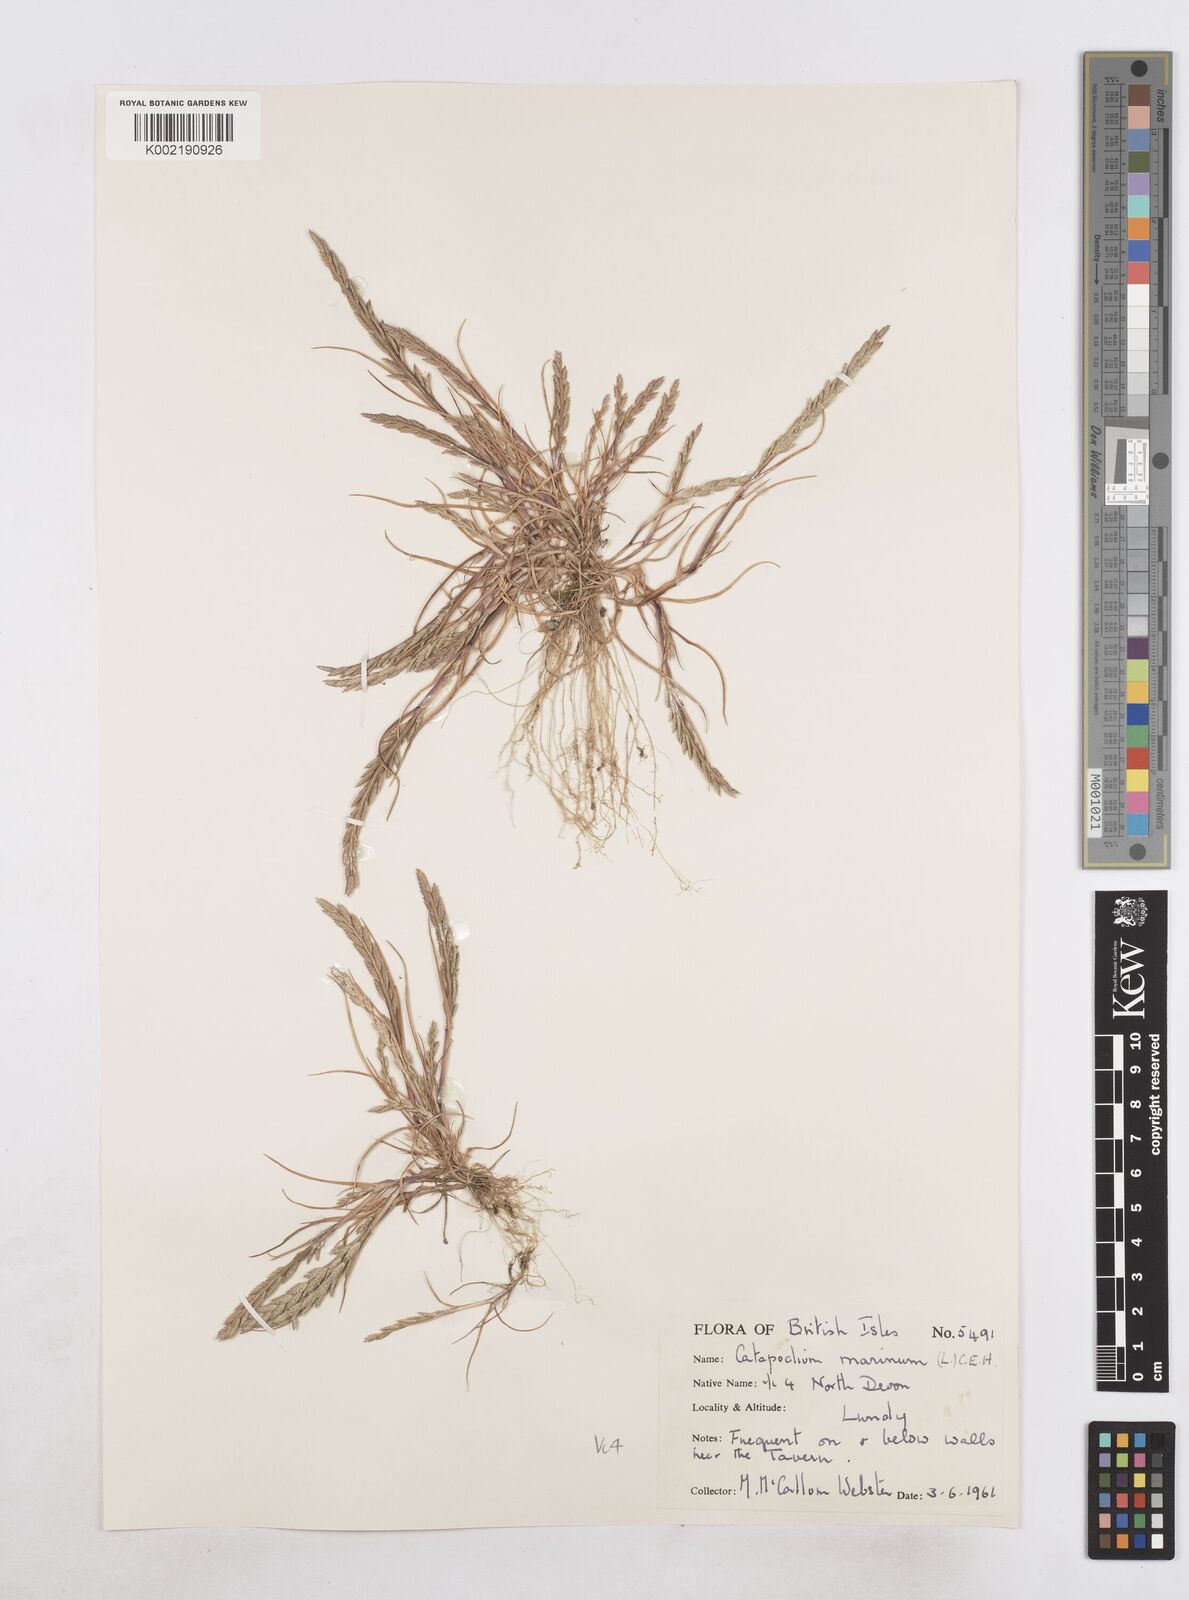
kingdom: Plantae
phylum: Tracheophyta
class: Liliopsida
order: Poales
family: Poaceae
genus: Catapodium
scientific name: Catapodium marinum
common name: Sea fern-grass
